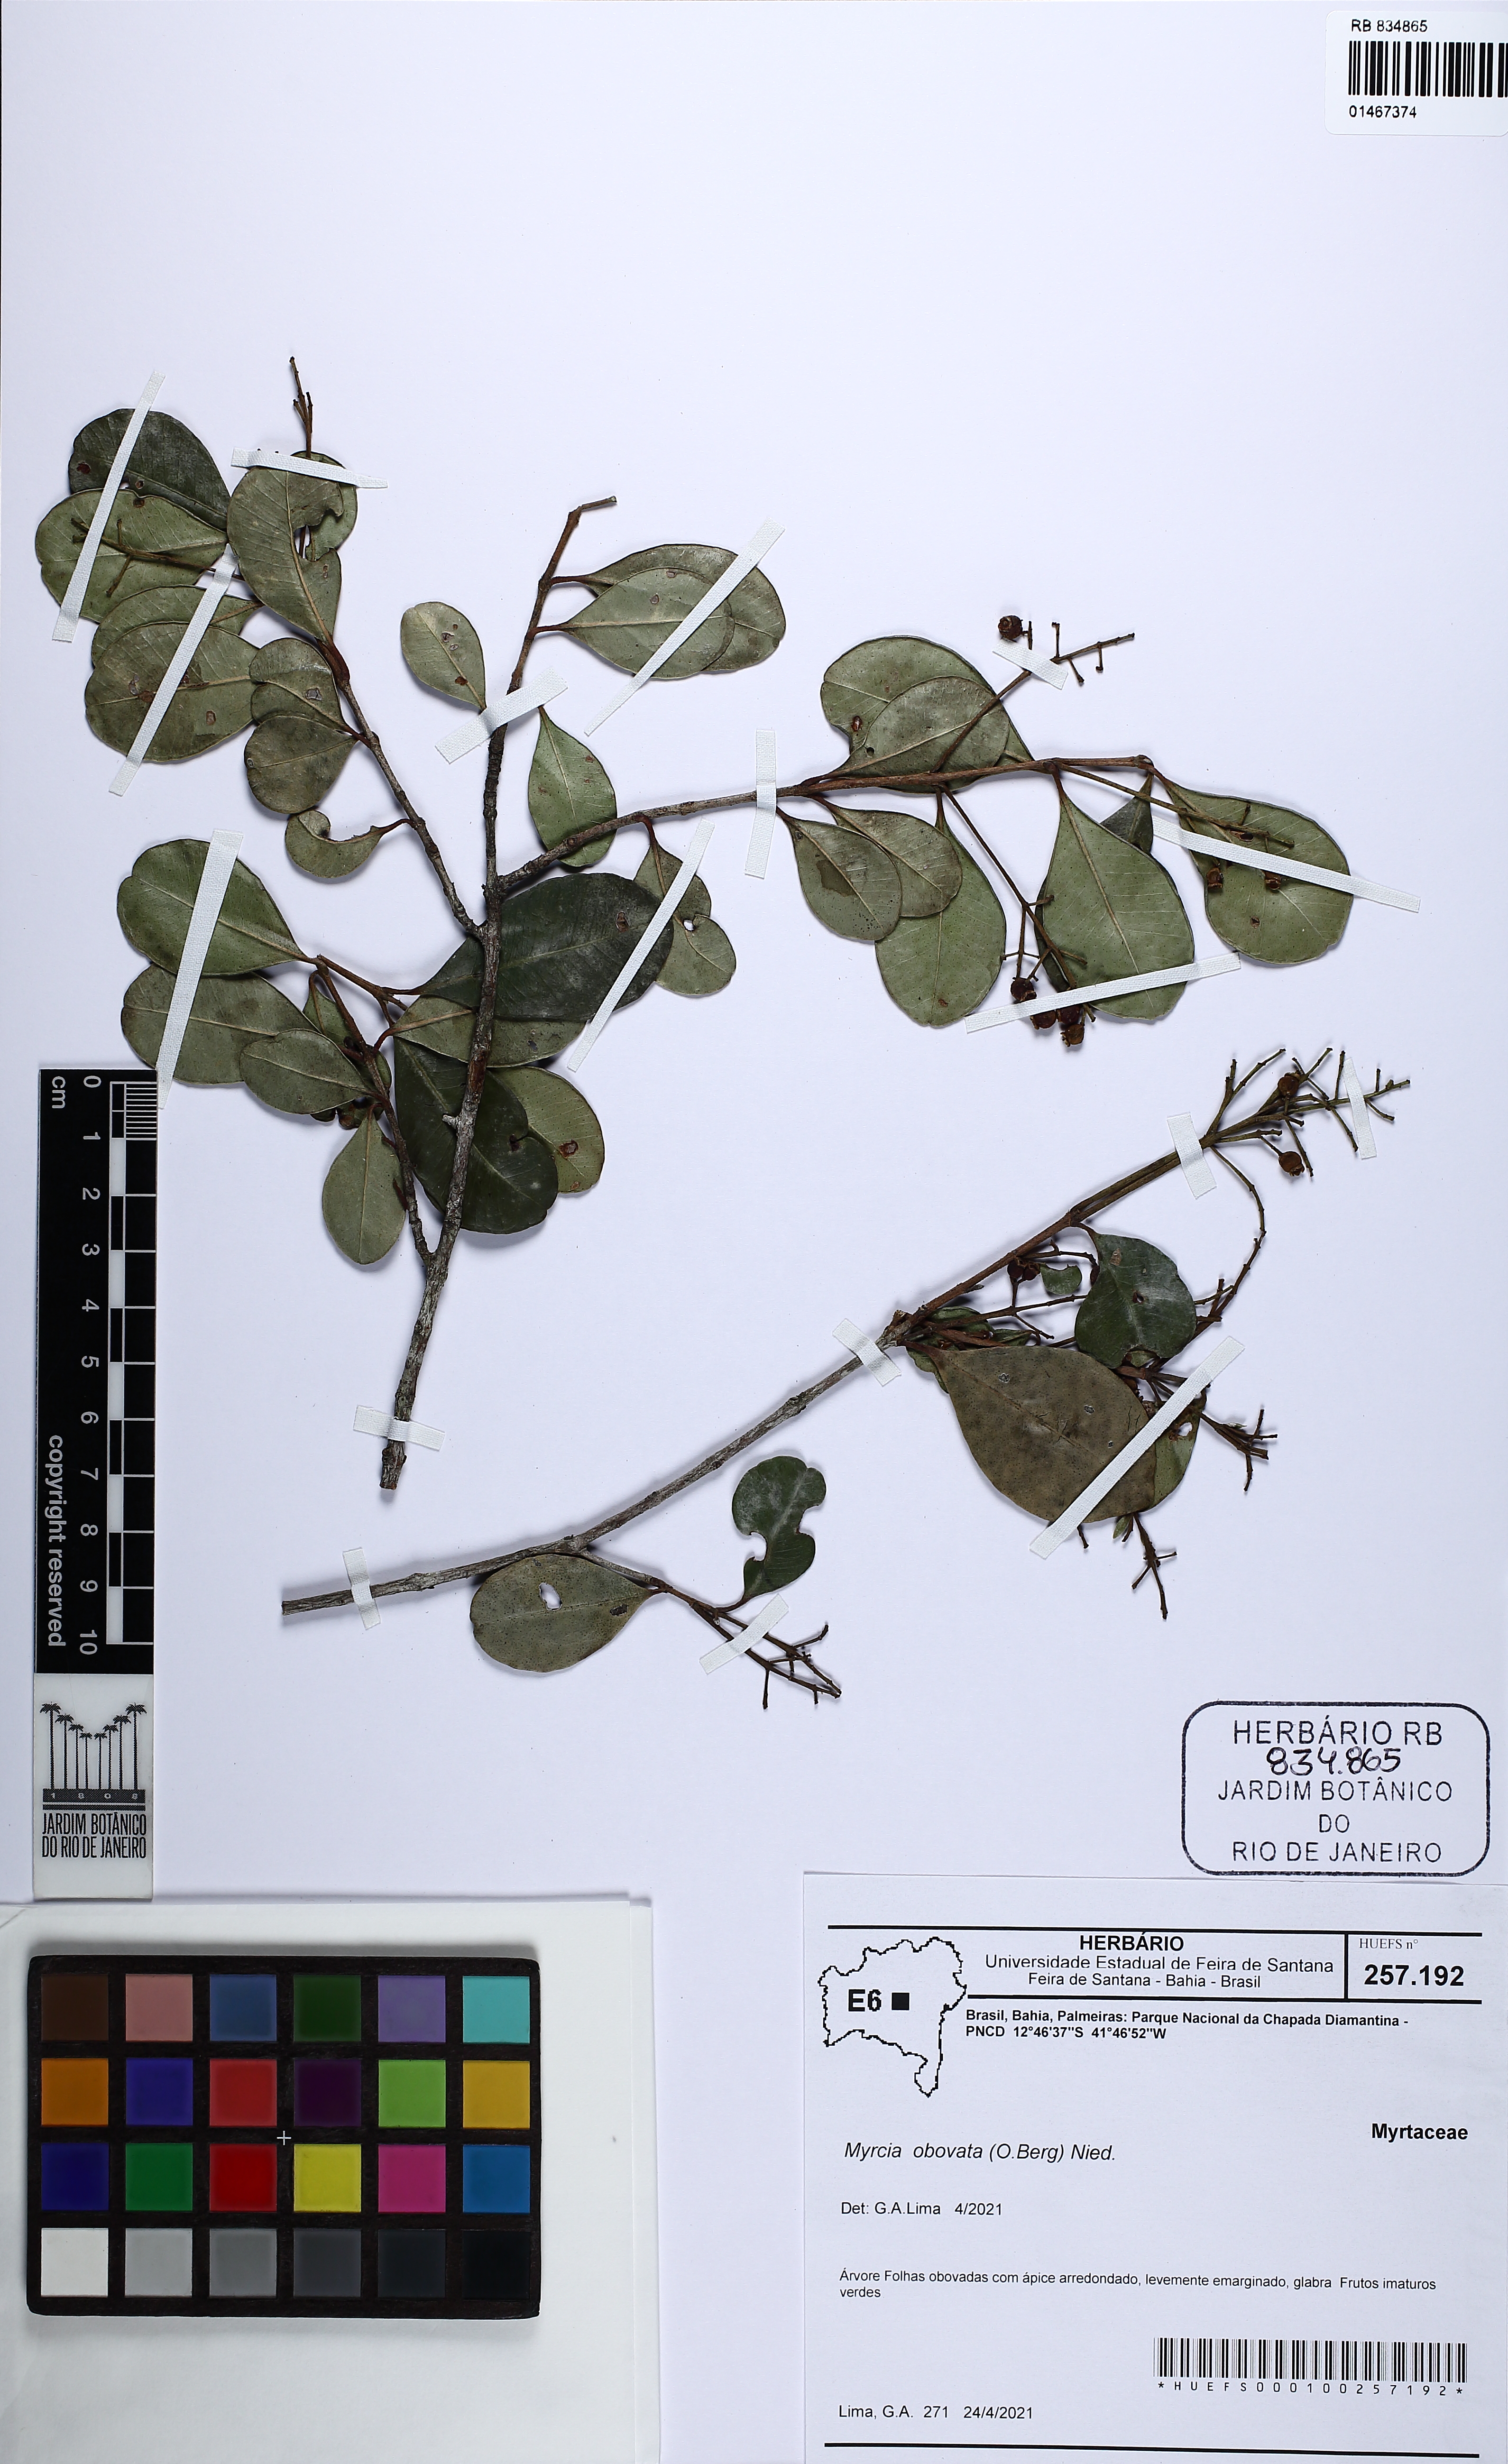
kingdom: Plantae
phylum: Tracheophyta
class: Magnoliopsida
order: Myrtales
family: Myrtaceae
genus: Myrcia
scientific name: Myrcia obovata
